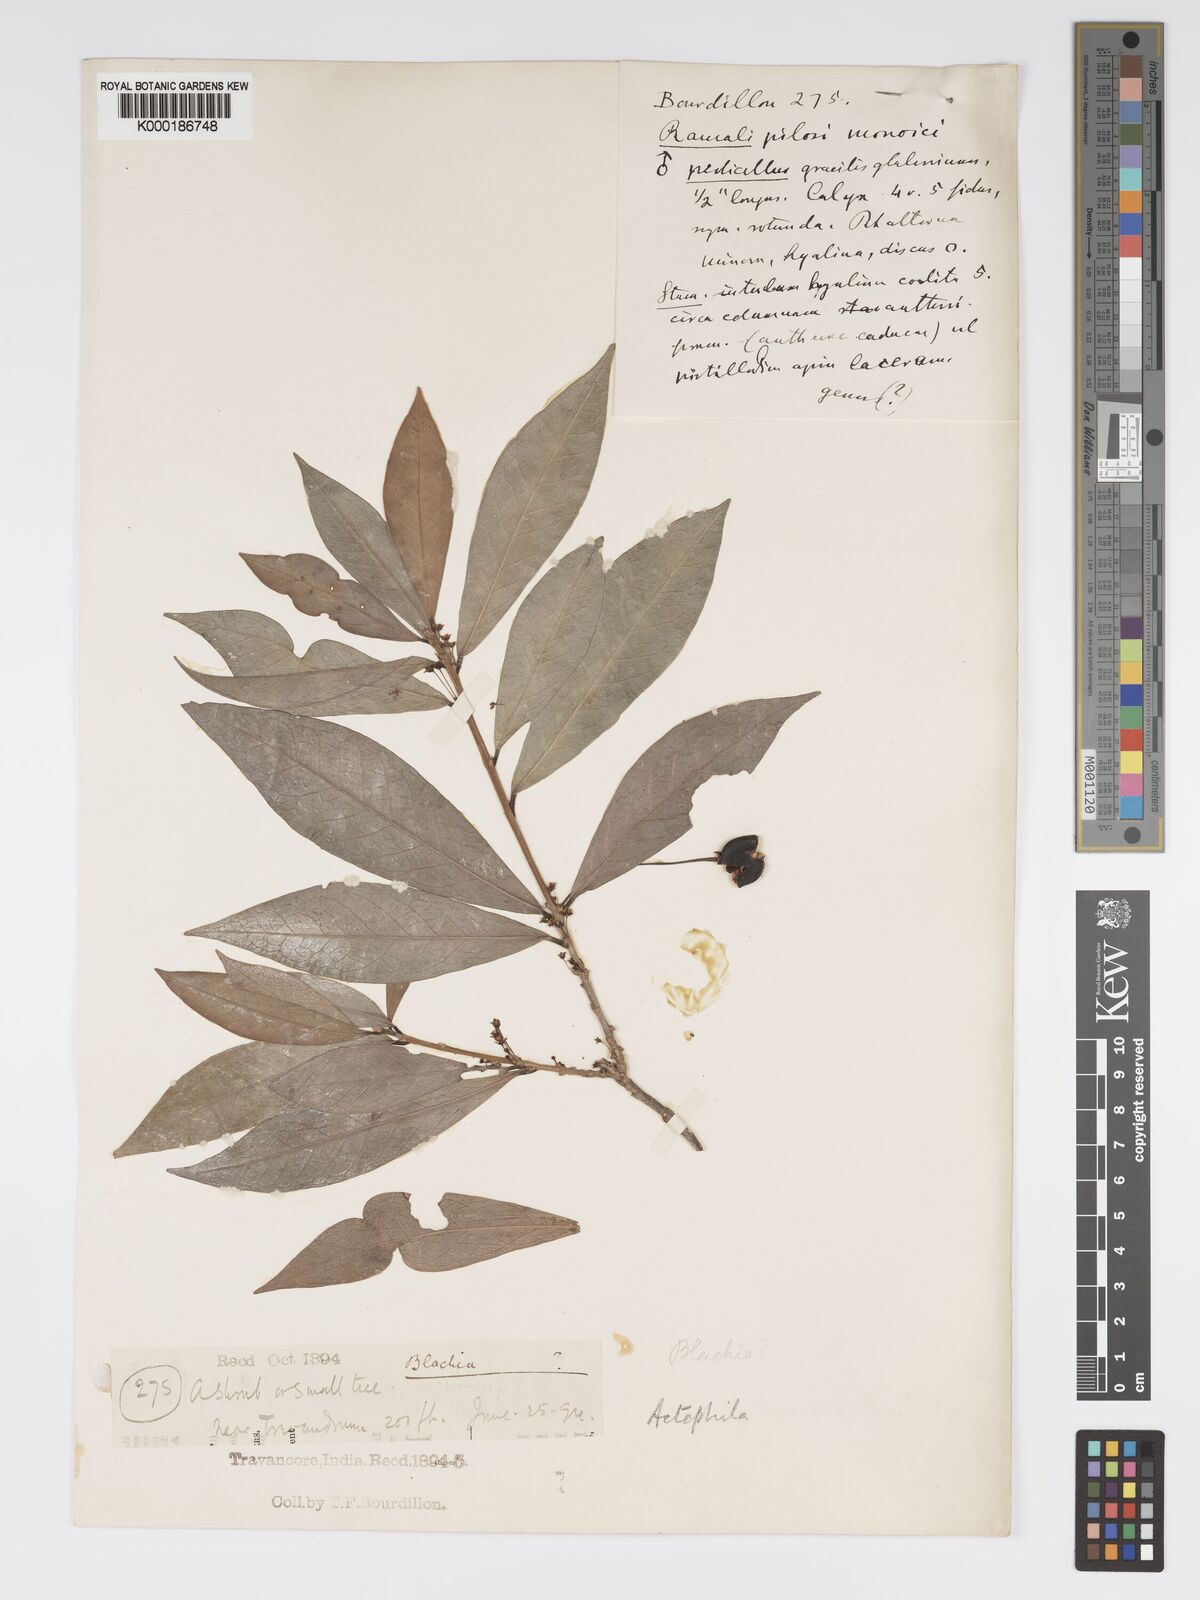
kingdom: Plantae
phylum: Tracheophyta
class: Magnoliopsida
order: Malpighiales
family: Phyllanthaceae
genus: Actephila
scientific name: Actephila excelsa
